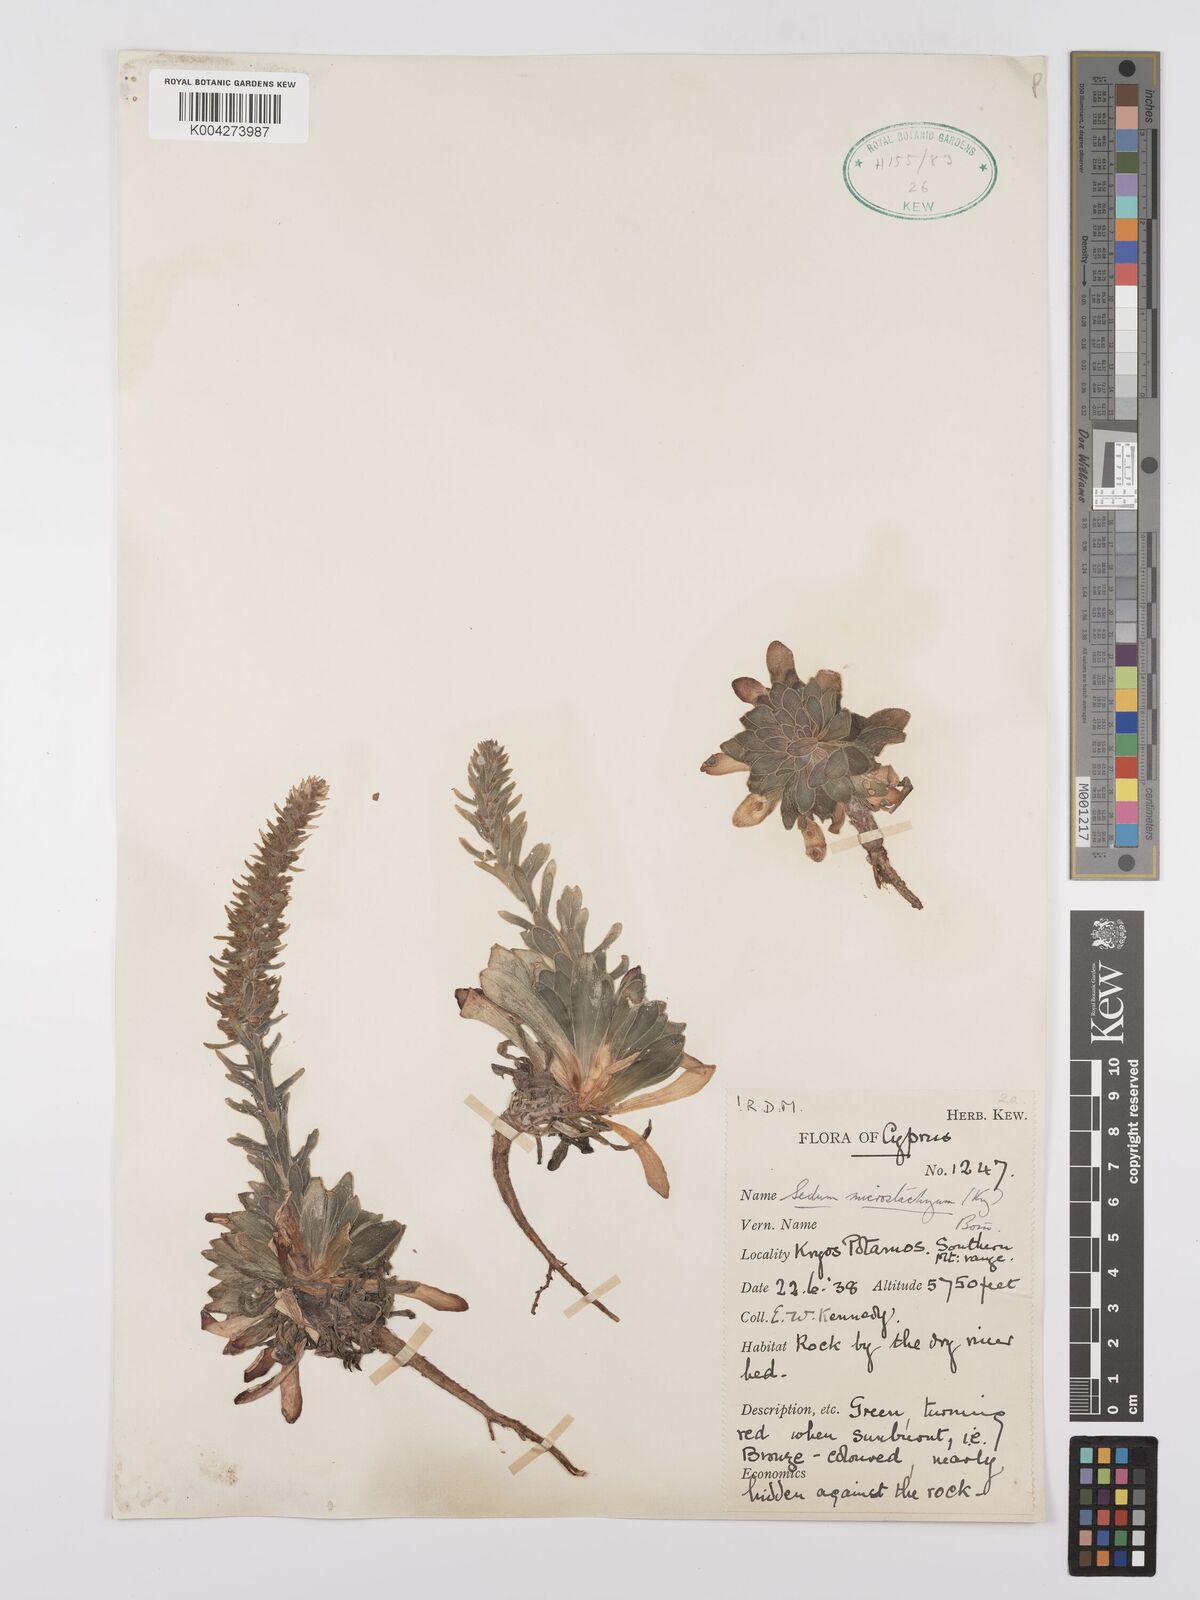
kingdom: Plantae
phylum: Tracheophyta
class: Magnoliopsida
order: Saxifragales
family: Crassulaceae
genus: Sedum
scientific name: Sedum microstachyum
